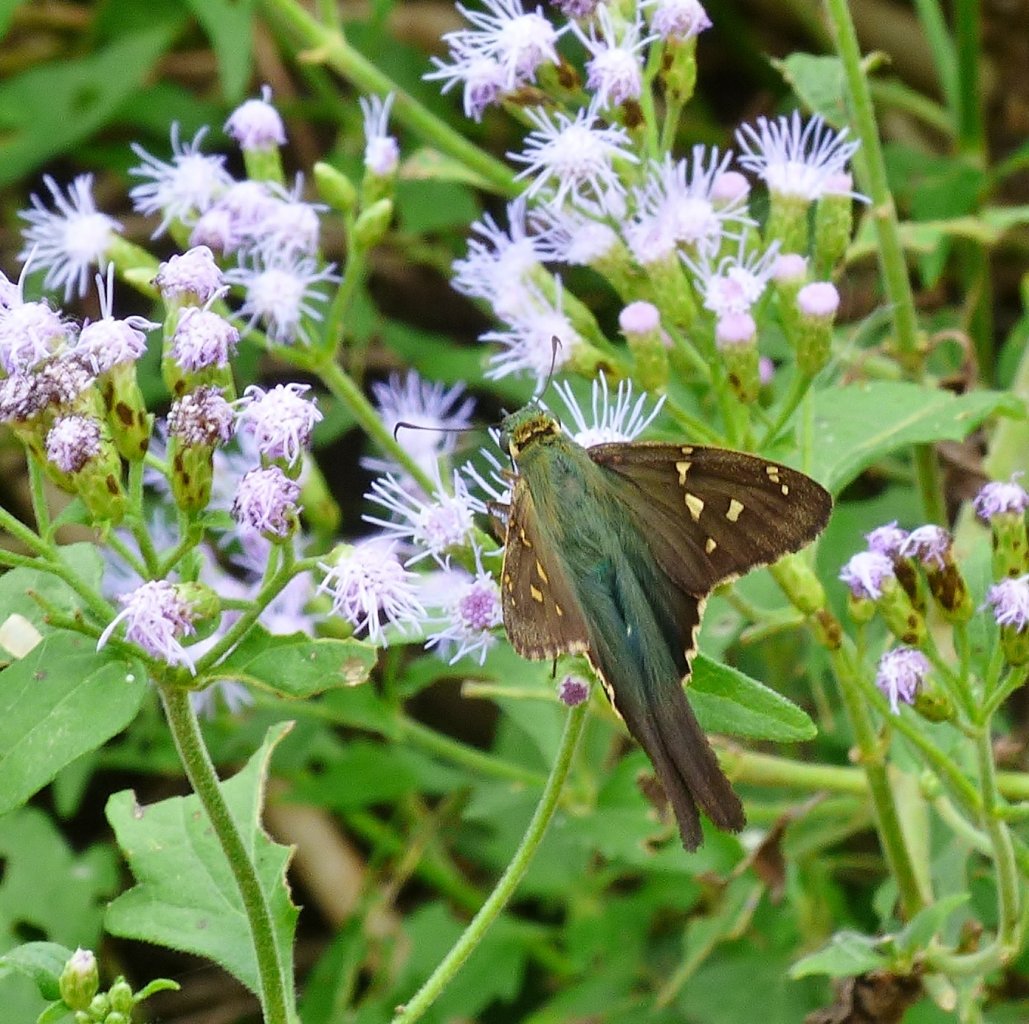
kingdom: Animalia
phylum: Arthropoda
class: Insecta
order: Lepidoptera
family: Hesperiidae
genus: Urbanus
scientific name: Urbanus proteus
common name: Long-tailed Skipper
